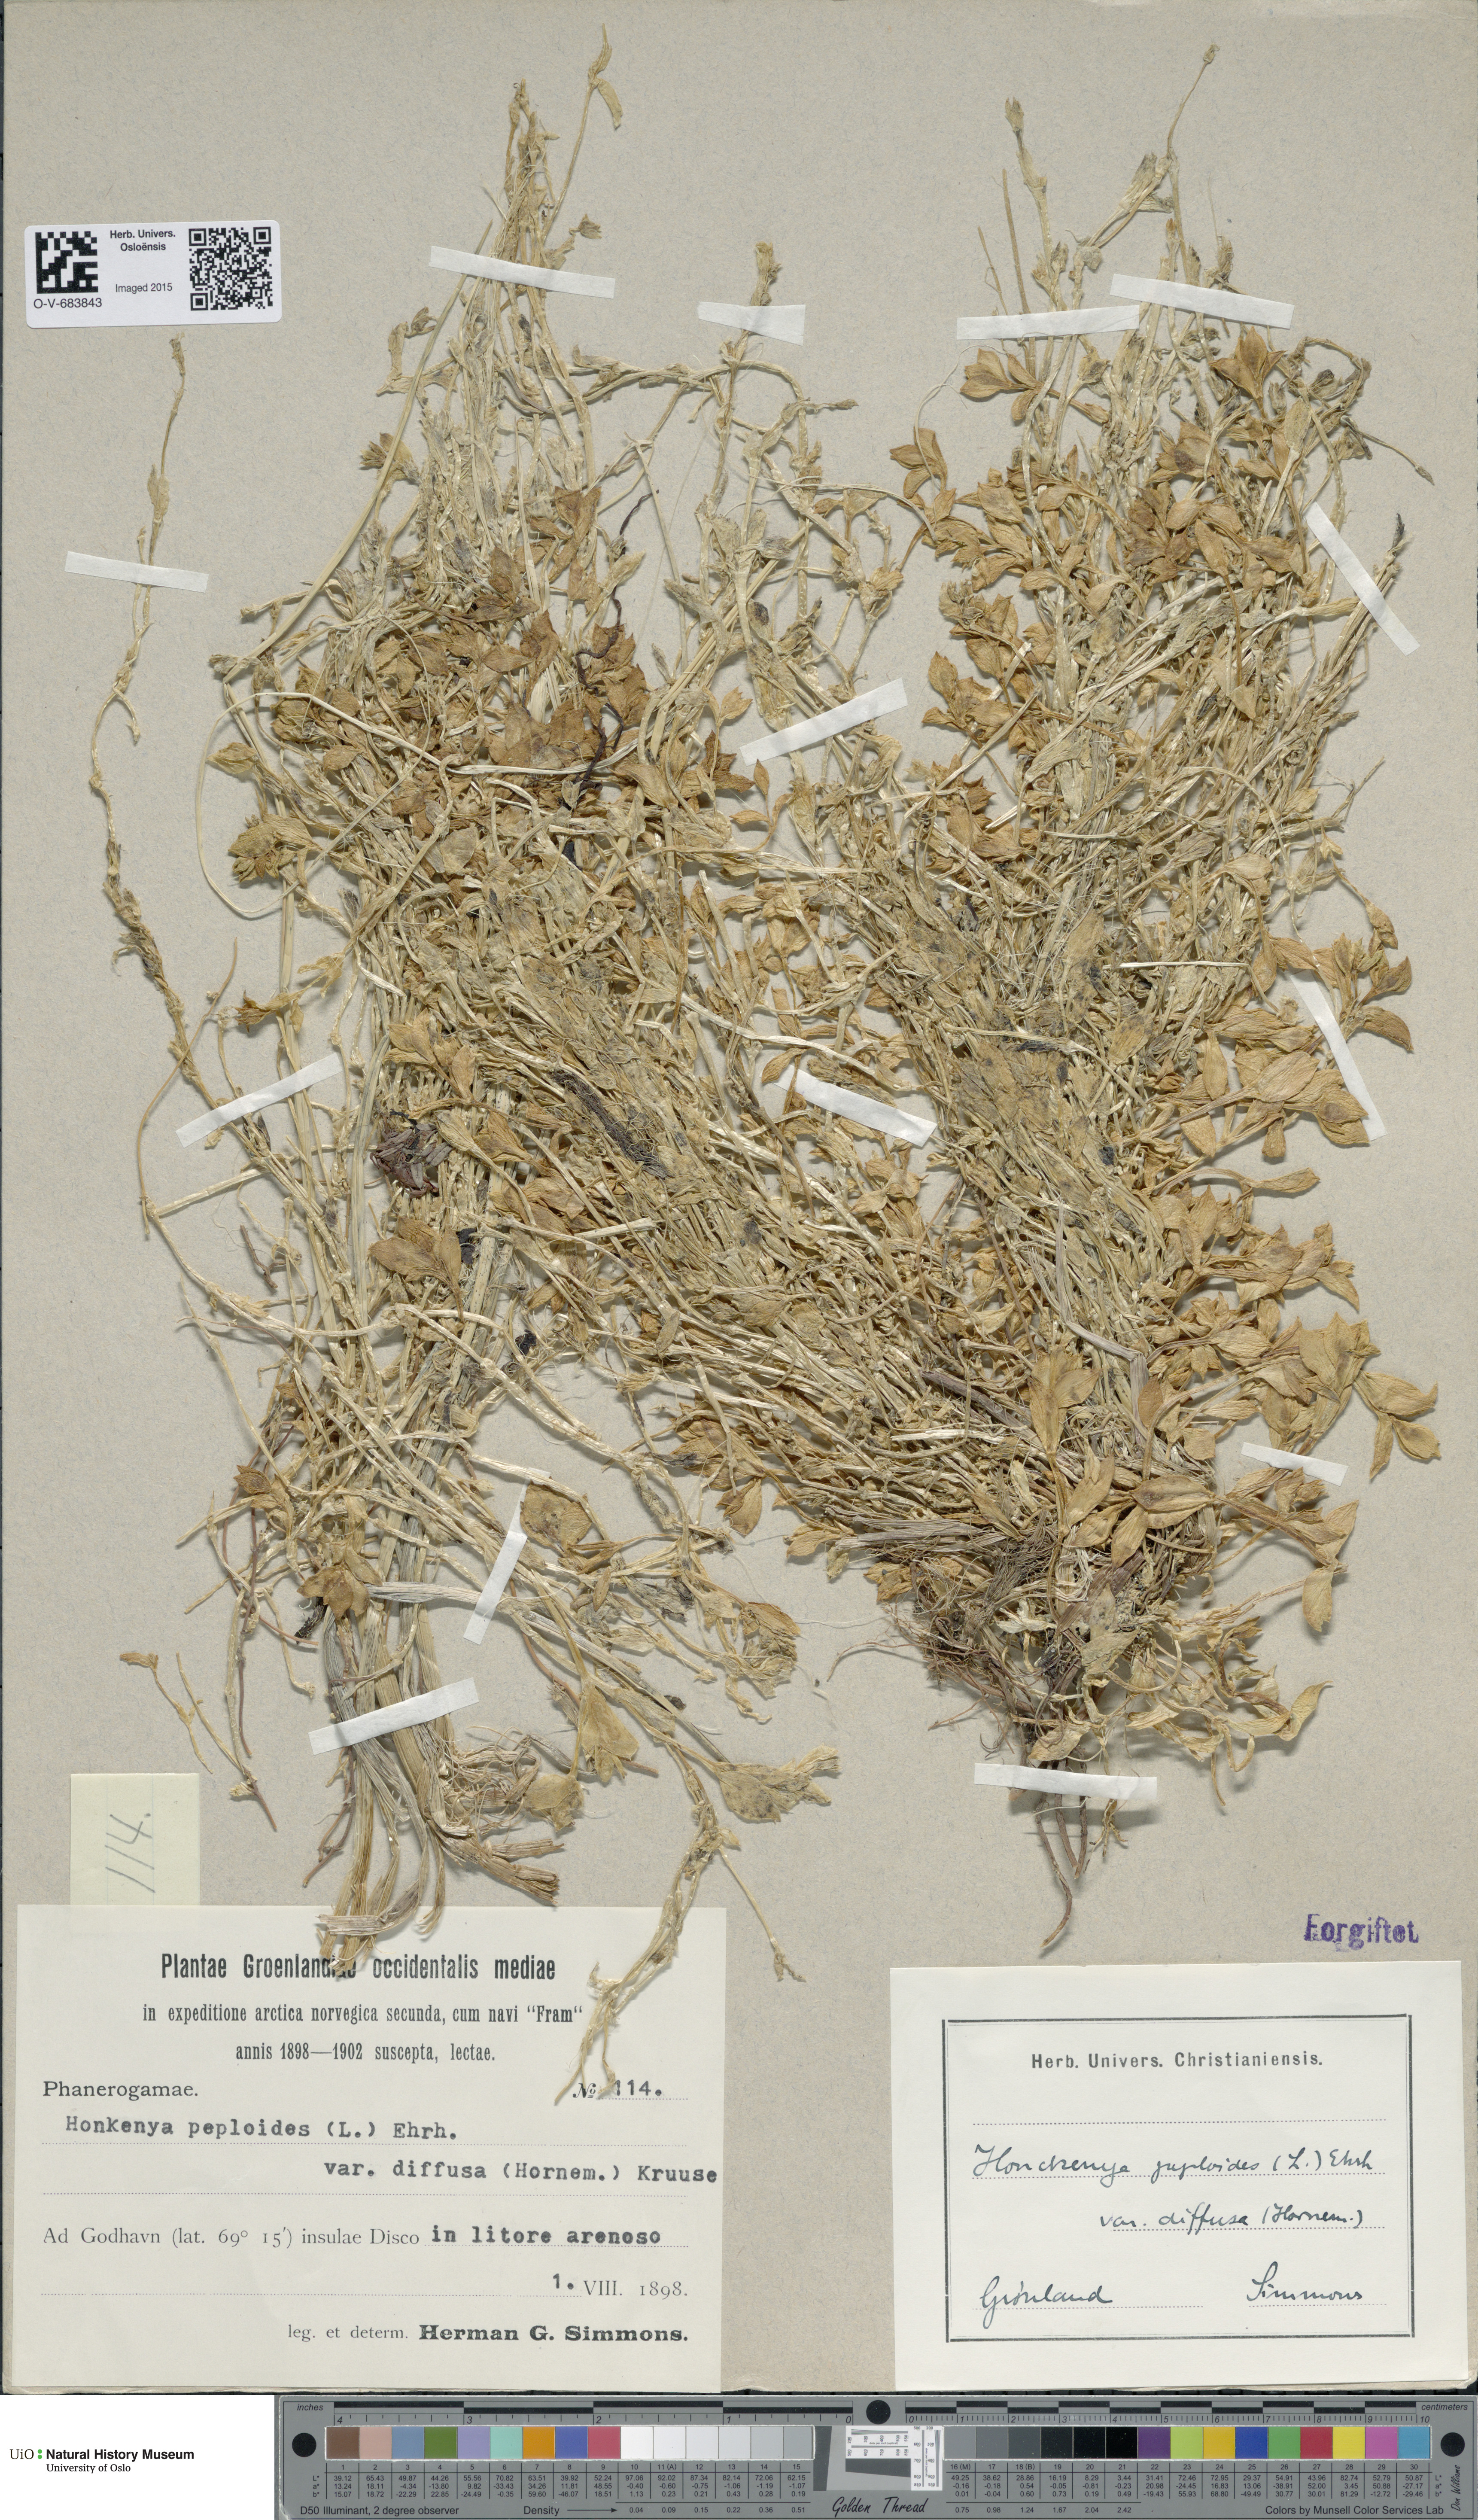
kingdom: Plantae
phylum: Tracheophyta
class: Magnoliopsida
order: Caryophyllales
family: Caryophyllaceae
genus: Honckenya
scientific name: Honckenya peploides
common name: Sea sandwort
